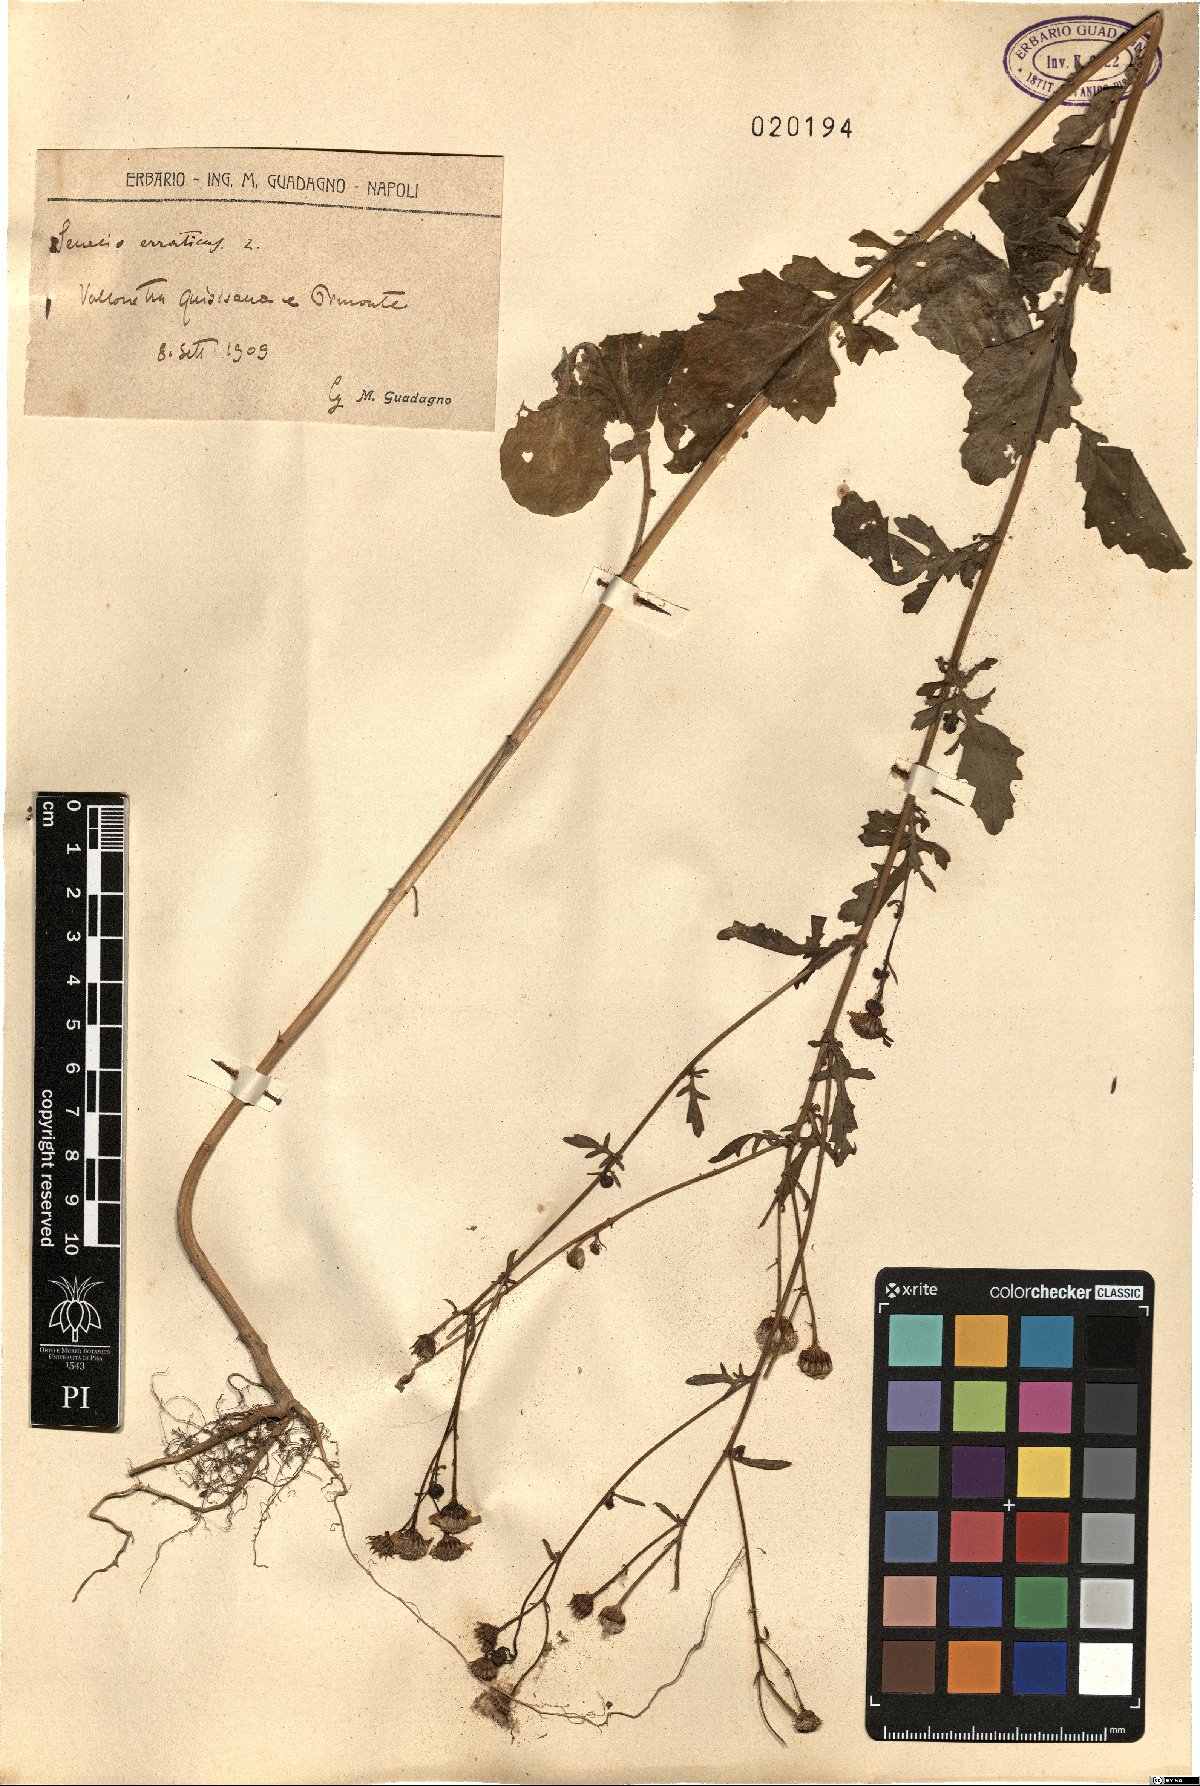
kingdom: Plantae
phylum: Tracheophyta
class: Magnoliopsida
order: Asterales
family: Asteraceae
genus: Jacobaea
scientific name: Jacobaea erratica
